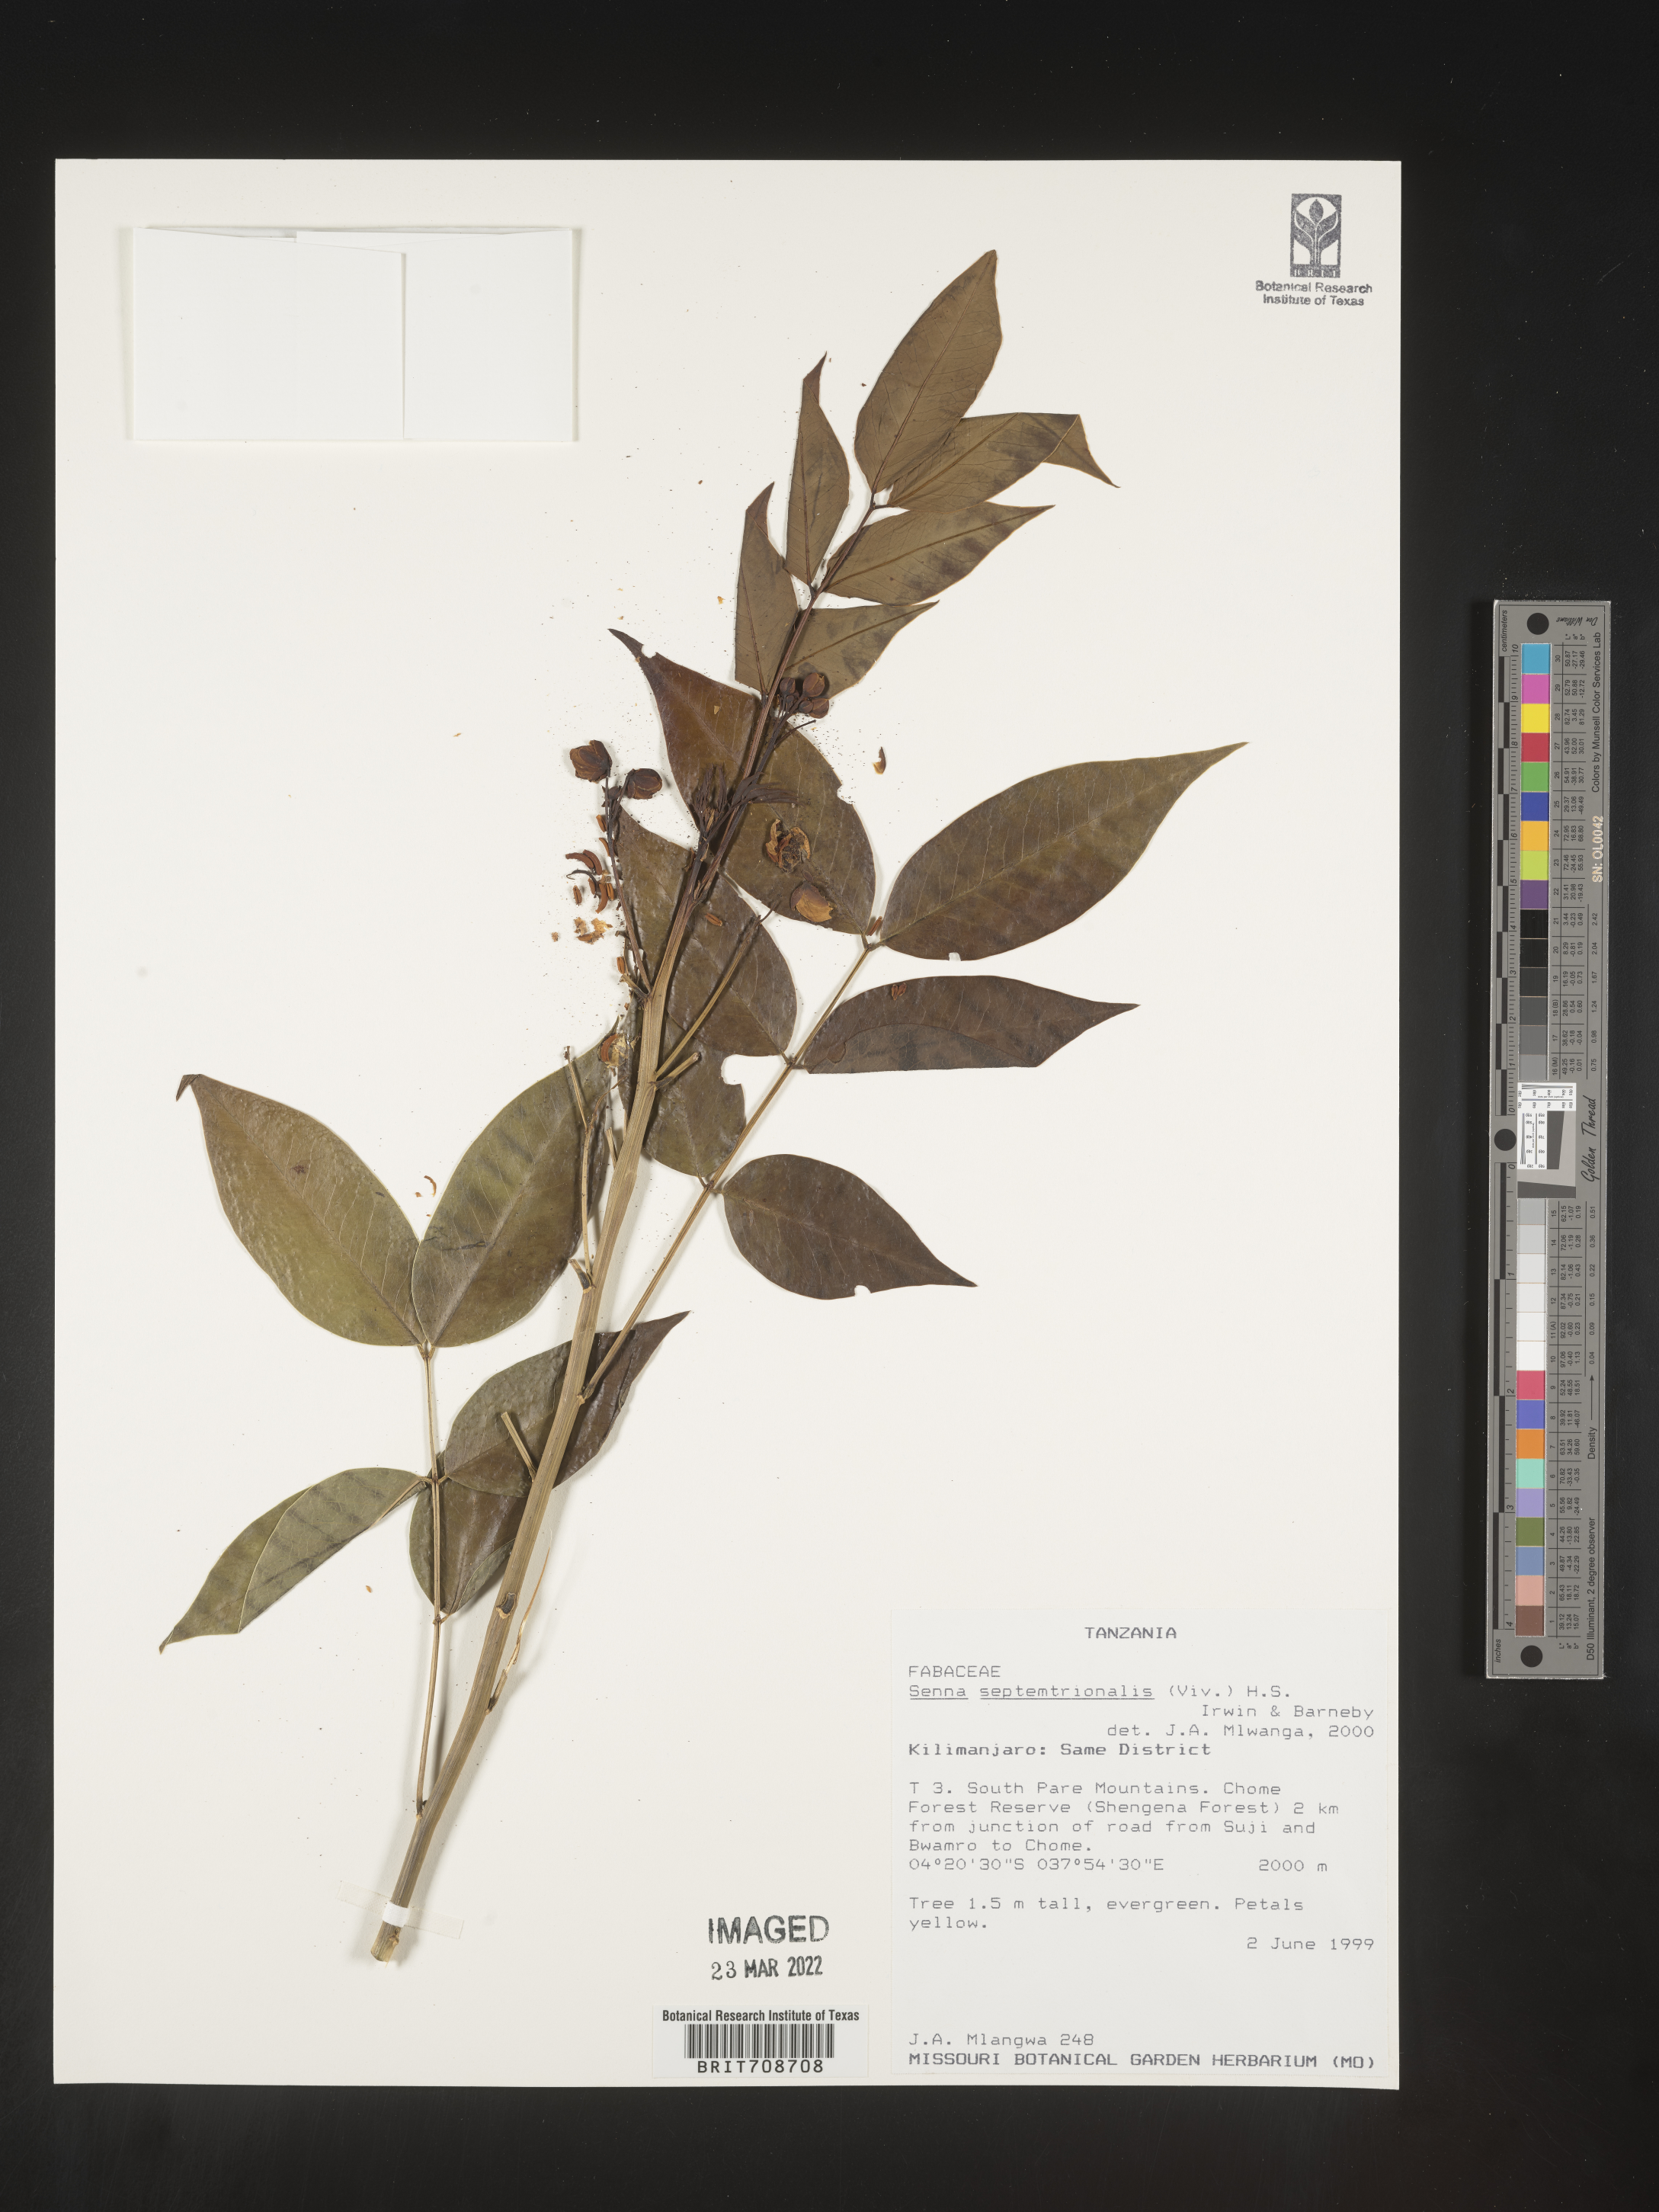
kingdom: Plantae
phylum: Tracheophyta
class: Magnoliopsida
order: Fabales
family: Fabaceae
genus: Senna
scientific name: Senna
